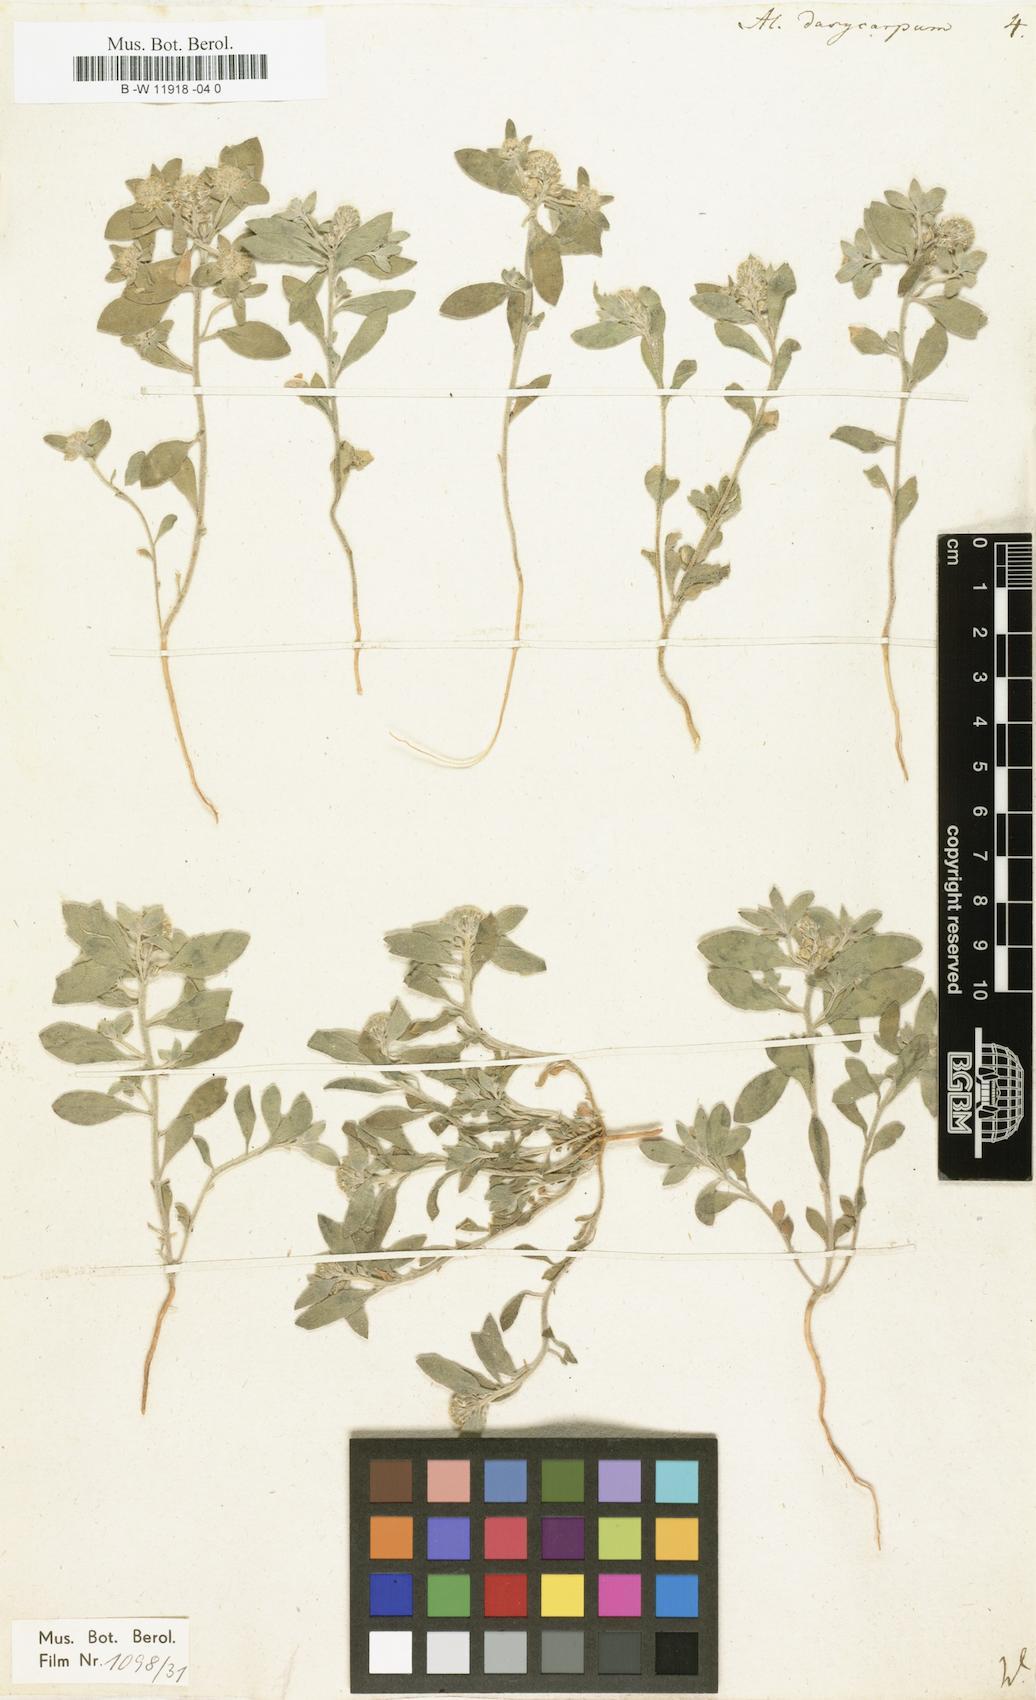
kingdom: Plantae
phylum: Tracheophyta
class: Magnoliopsida
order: Brassicales
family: Brassicaceae
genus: Alyssum
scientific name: Alyssum dasycarpum
